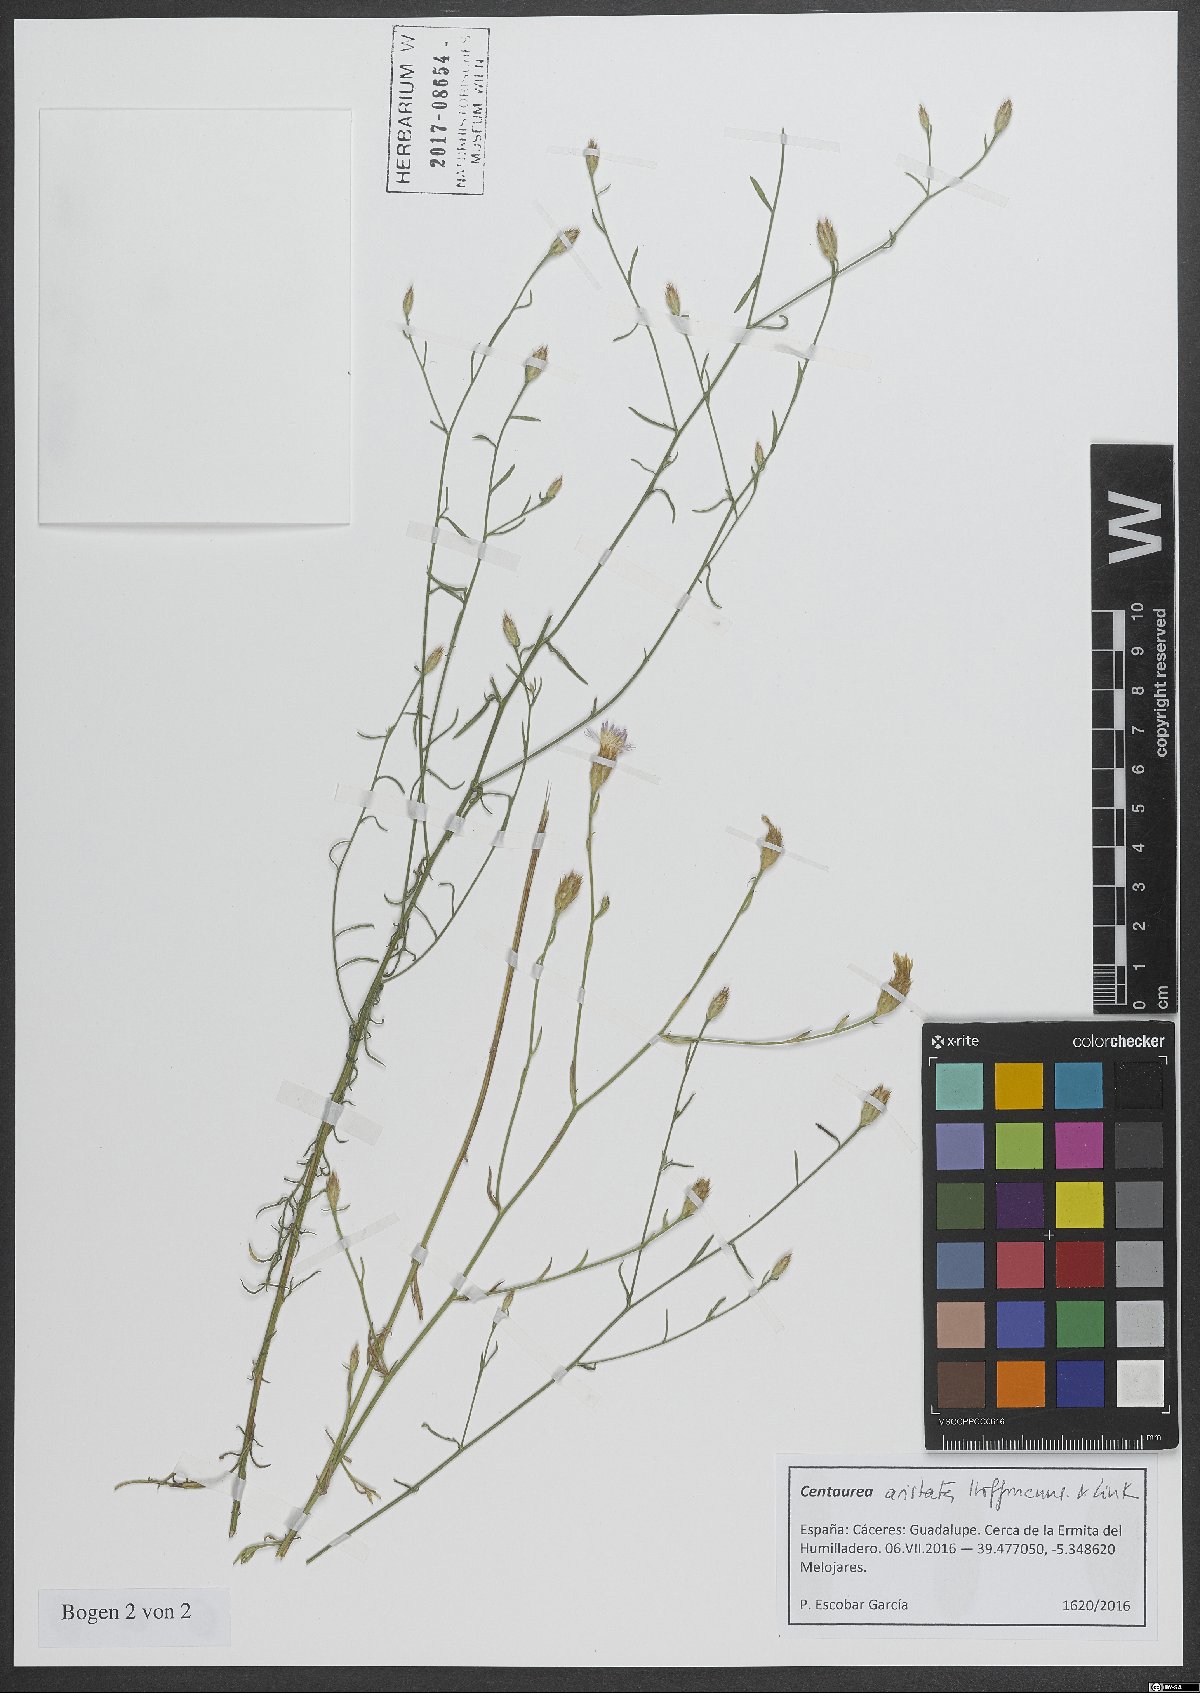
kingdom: Plantae
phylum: Tracheophyta
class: Magnoliopsida
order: Asterales
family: Asteraceae
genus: Centaurea
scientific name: Centaurea aristata
